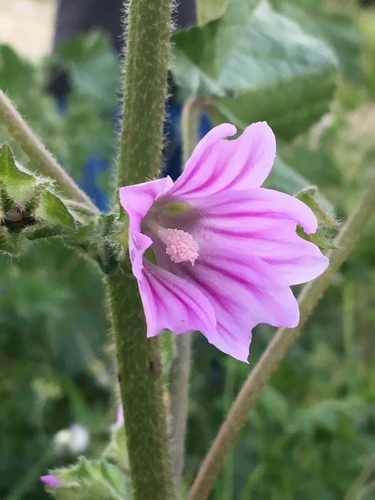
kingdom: Plantae
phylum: Tracheophyta
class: Magnoliopsida
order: Malvales
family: Malvaceae
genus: Malva
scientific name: Malva multiflora
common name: Cheeseweed
